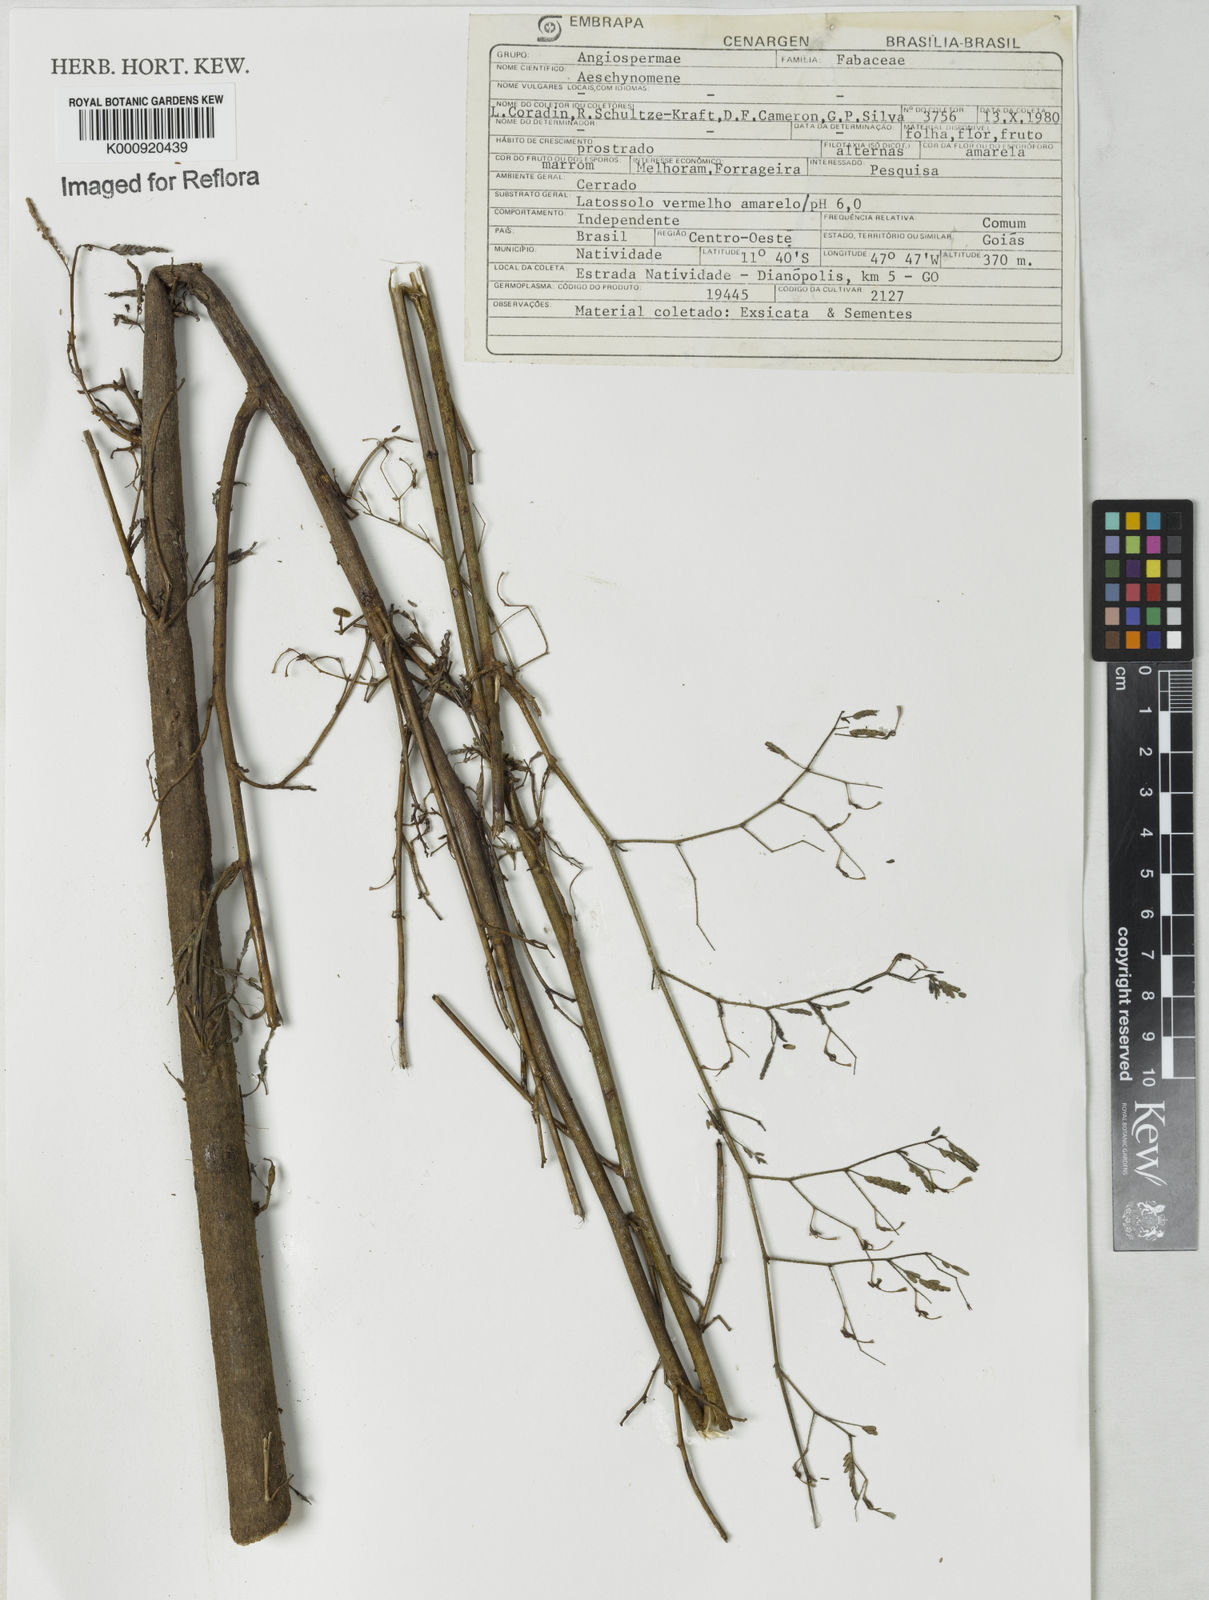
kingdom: Plantae
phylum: Tracheophyta
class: Magnoliopsida
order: Fabales
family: Fabaceae
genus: Aeschynomene
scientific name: Aeschynomene
